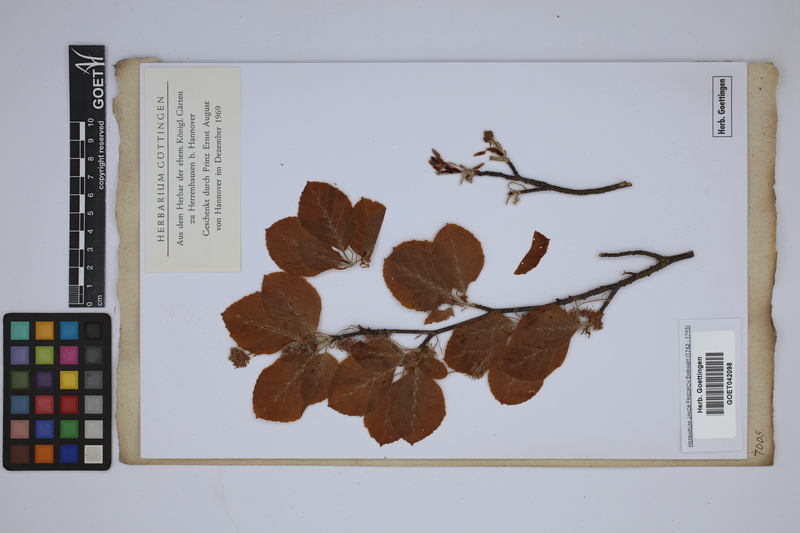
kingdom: Plantae
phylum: Tracheophyta
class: Magnoliopsida
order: Fagales
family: Fagaceae
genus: Fagus
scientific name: Fagus sylvatica
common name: Beech
